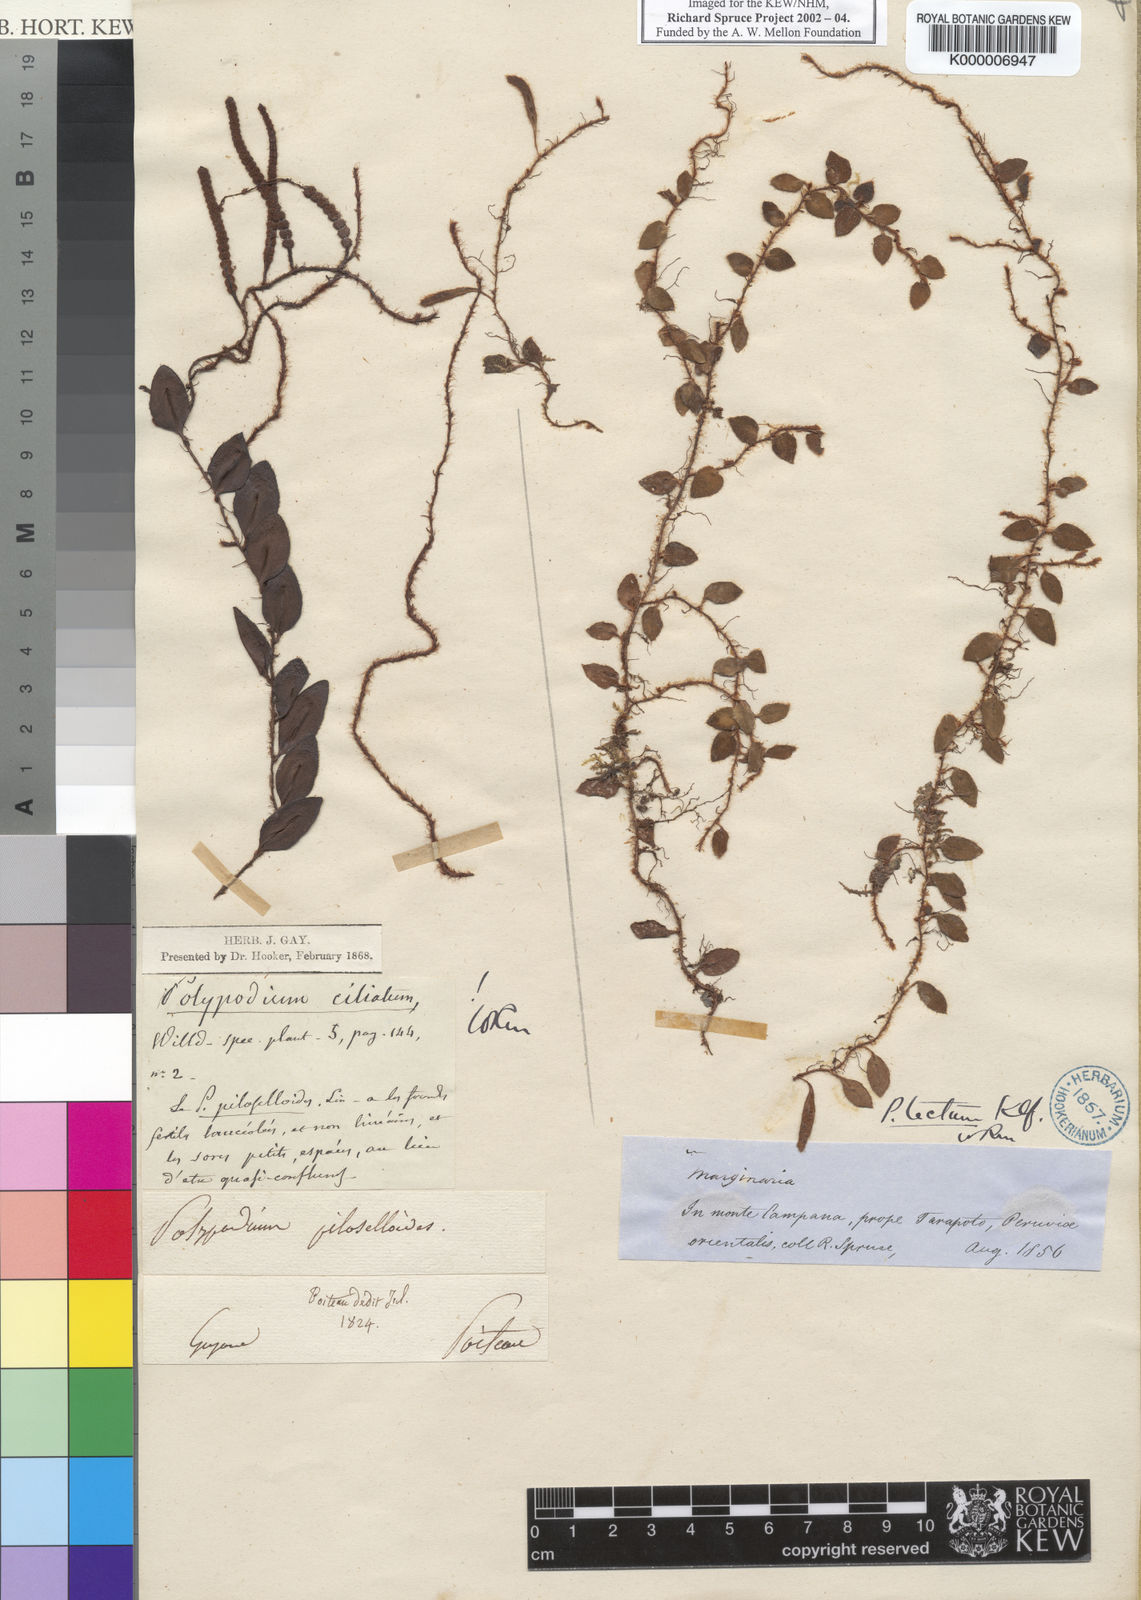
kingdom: Plantae
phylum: Tracheophyta
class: Polypodiopsida
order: Polypodiales
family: Polypodiaceae
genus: Microgramma
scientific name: Microgramma tecta
